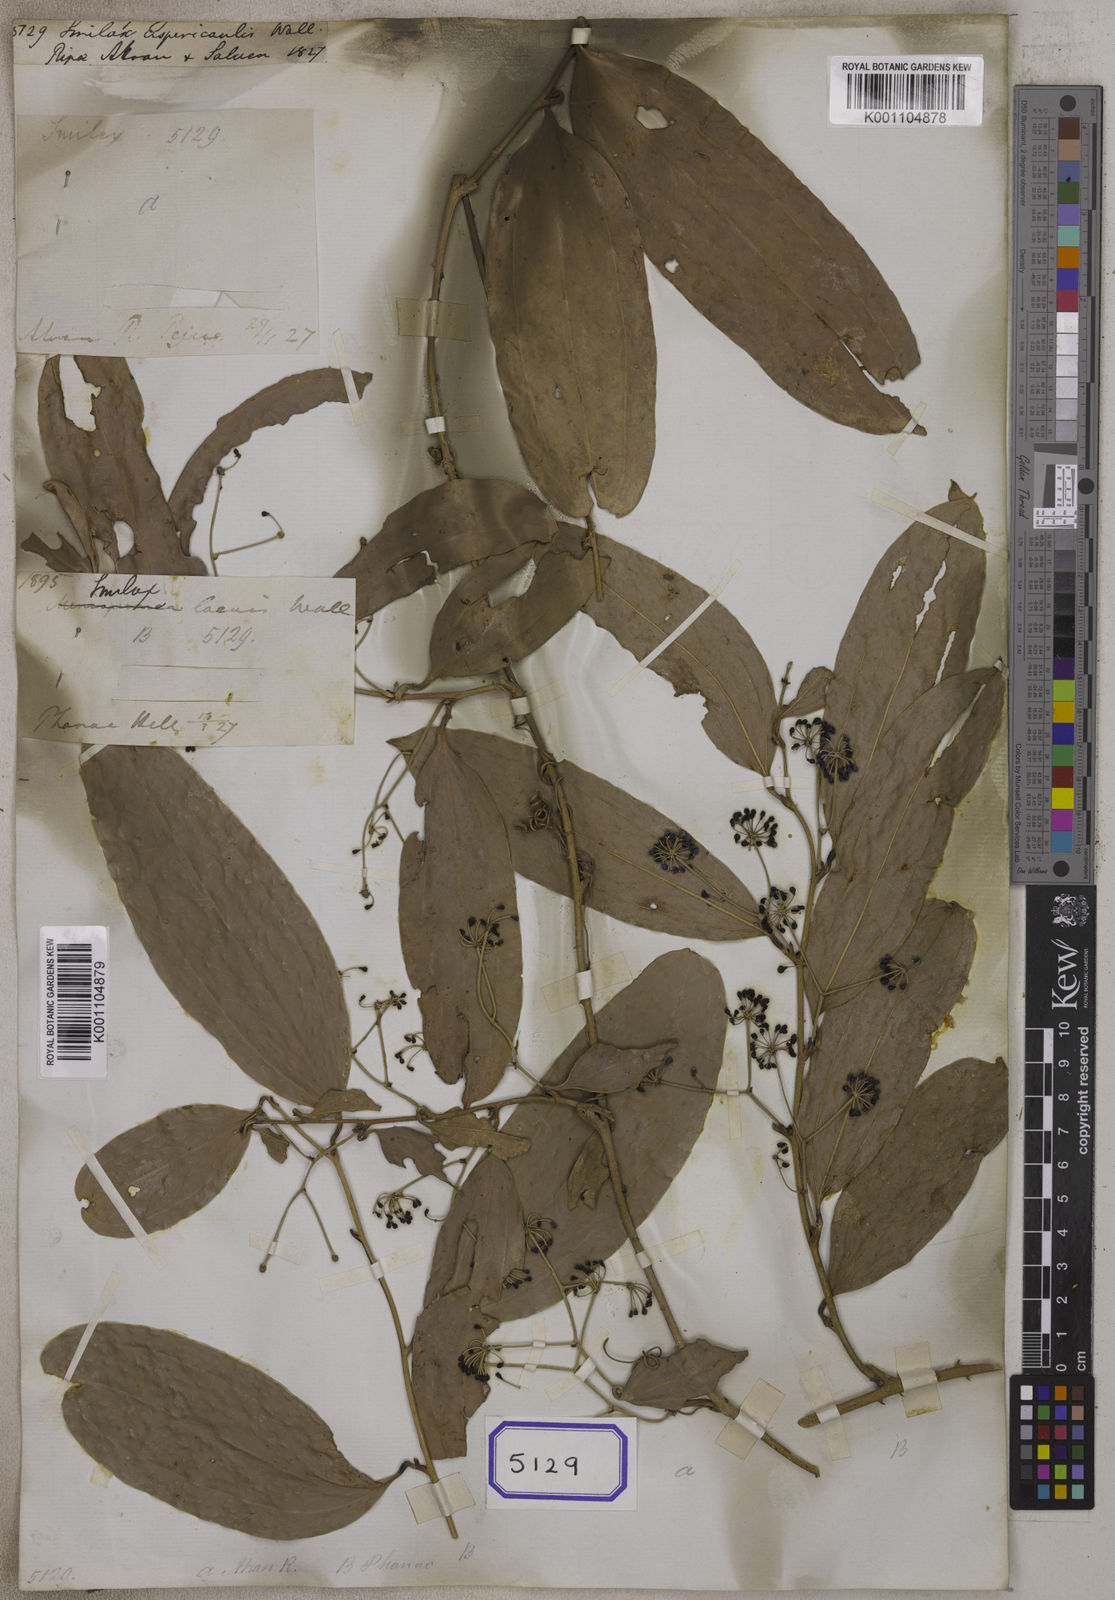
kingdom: Plantae
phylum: Tracheophyta
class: Liliopsida
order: Liliales
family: Smilacaceae
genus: Smilax
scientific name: Smilax
